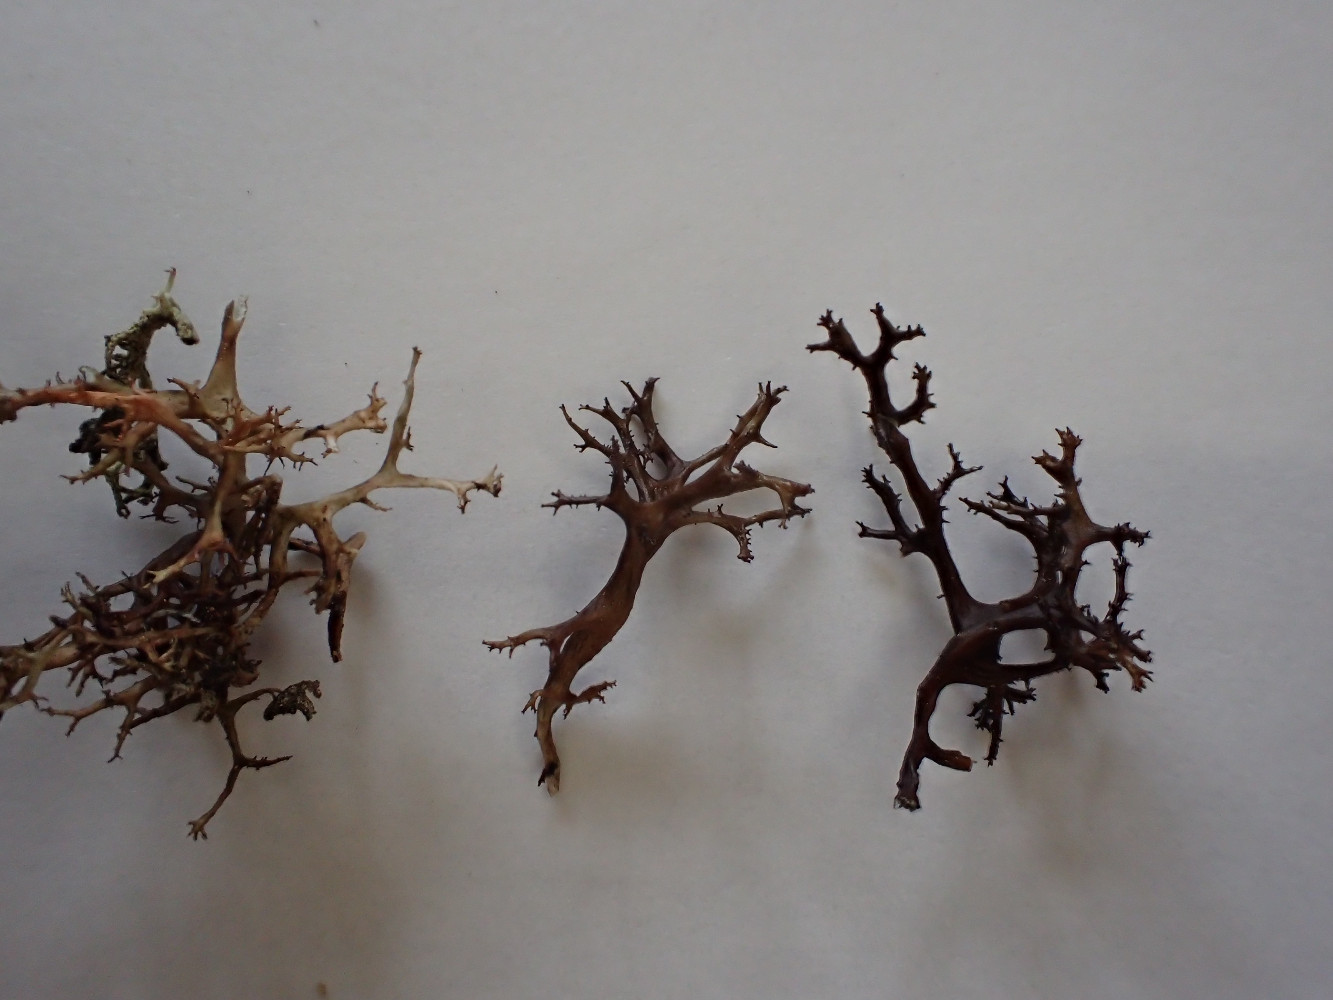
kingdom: Fungi
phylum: Ascomycota
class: Lecanoromycetes
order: Lecanorales
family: Parmeliaceae
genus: Cetraria
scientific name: Cetraria aculeata
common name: grubet tjørnelav
